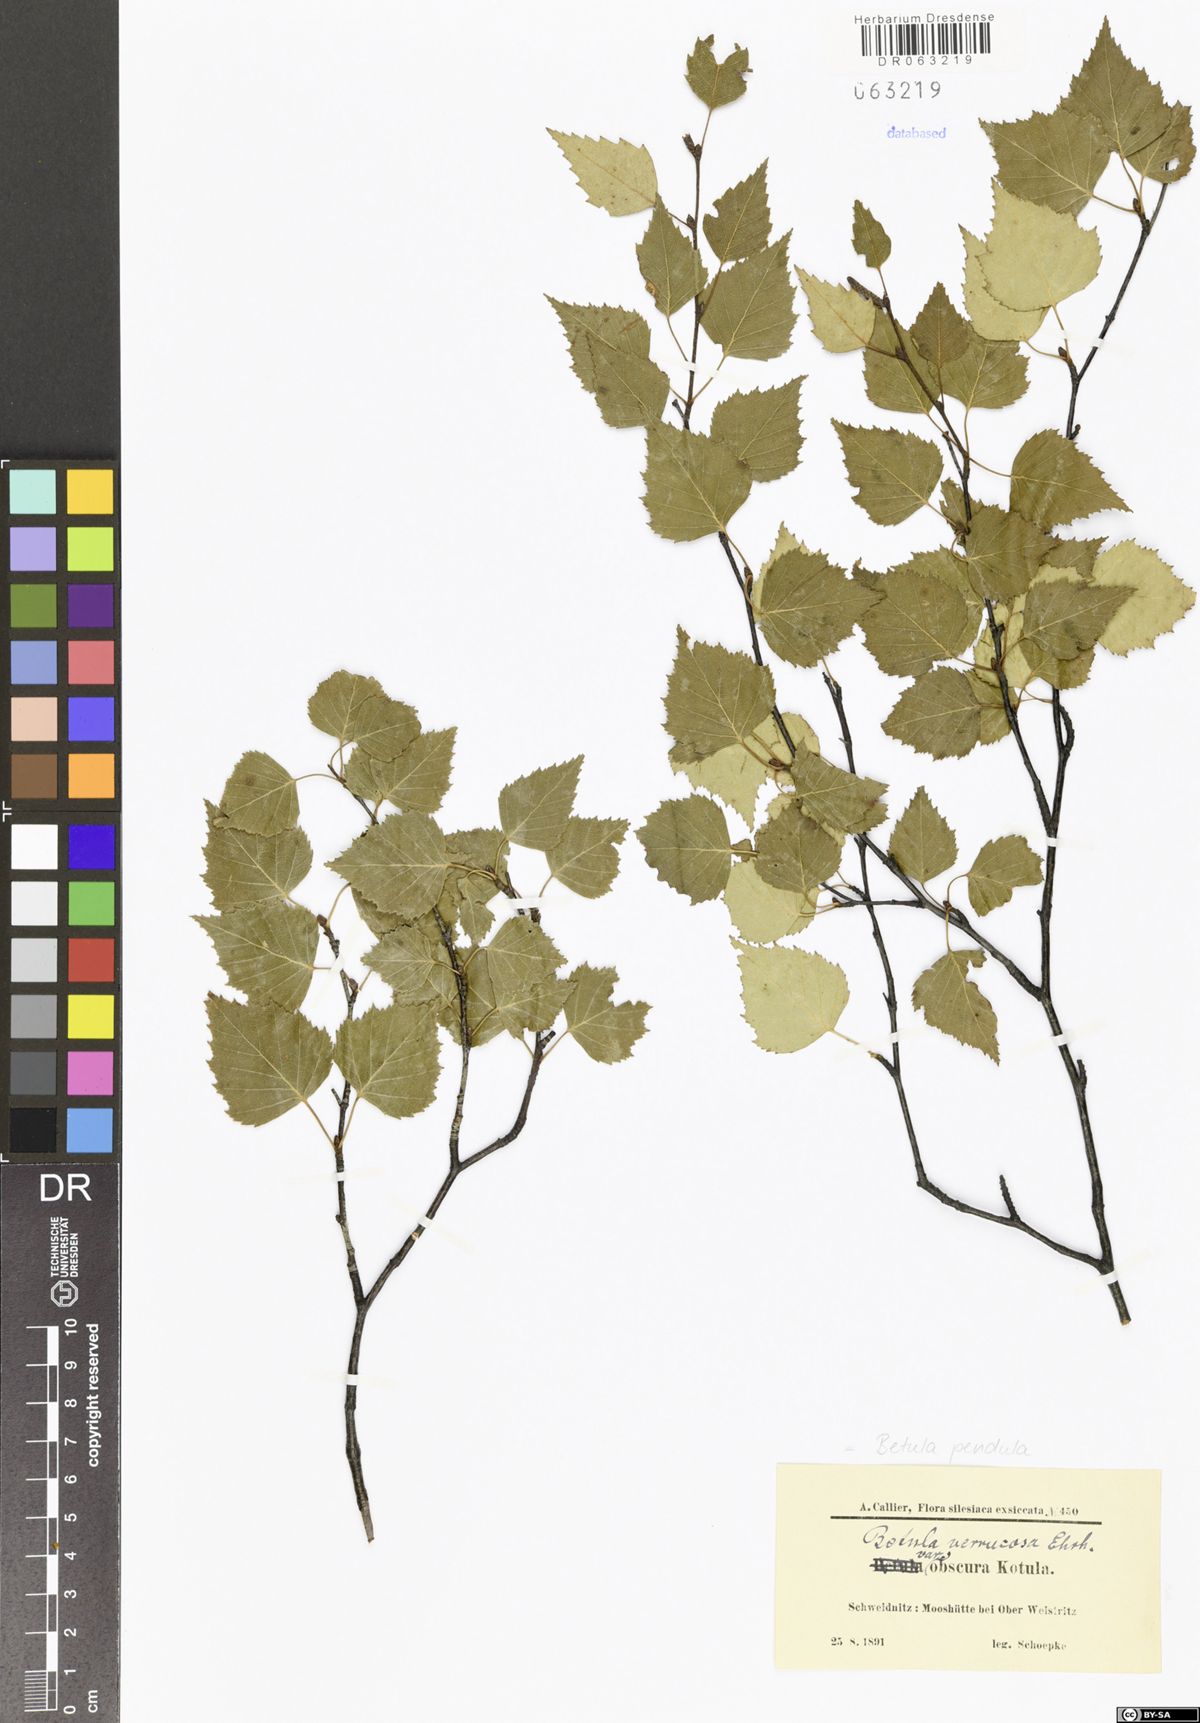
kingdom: Plantae
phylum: Tracheophyta
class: Magnoliopsida
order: Fagales
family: Betulaceae
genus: Betula
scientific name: Betula pendula
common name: Silver birch
